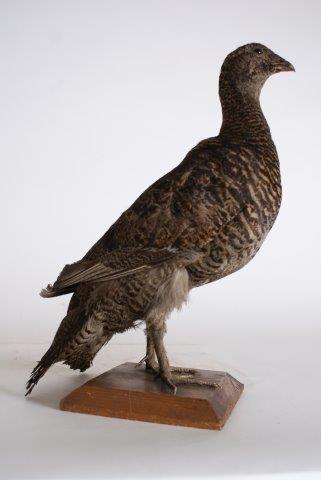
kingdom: Animalia
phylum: Chordata
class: Aves
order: Galliformes
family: Phasianidae
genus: Lyrurus
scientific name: Lyrurus tetrix
